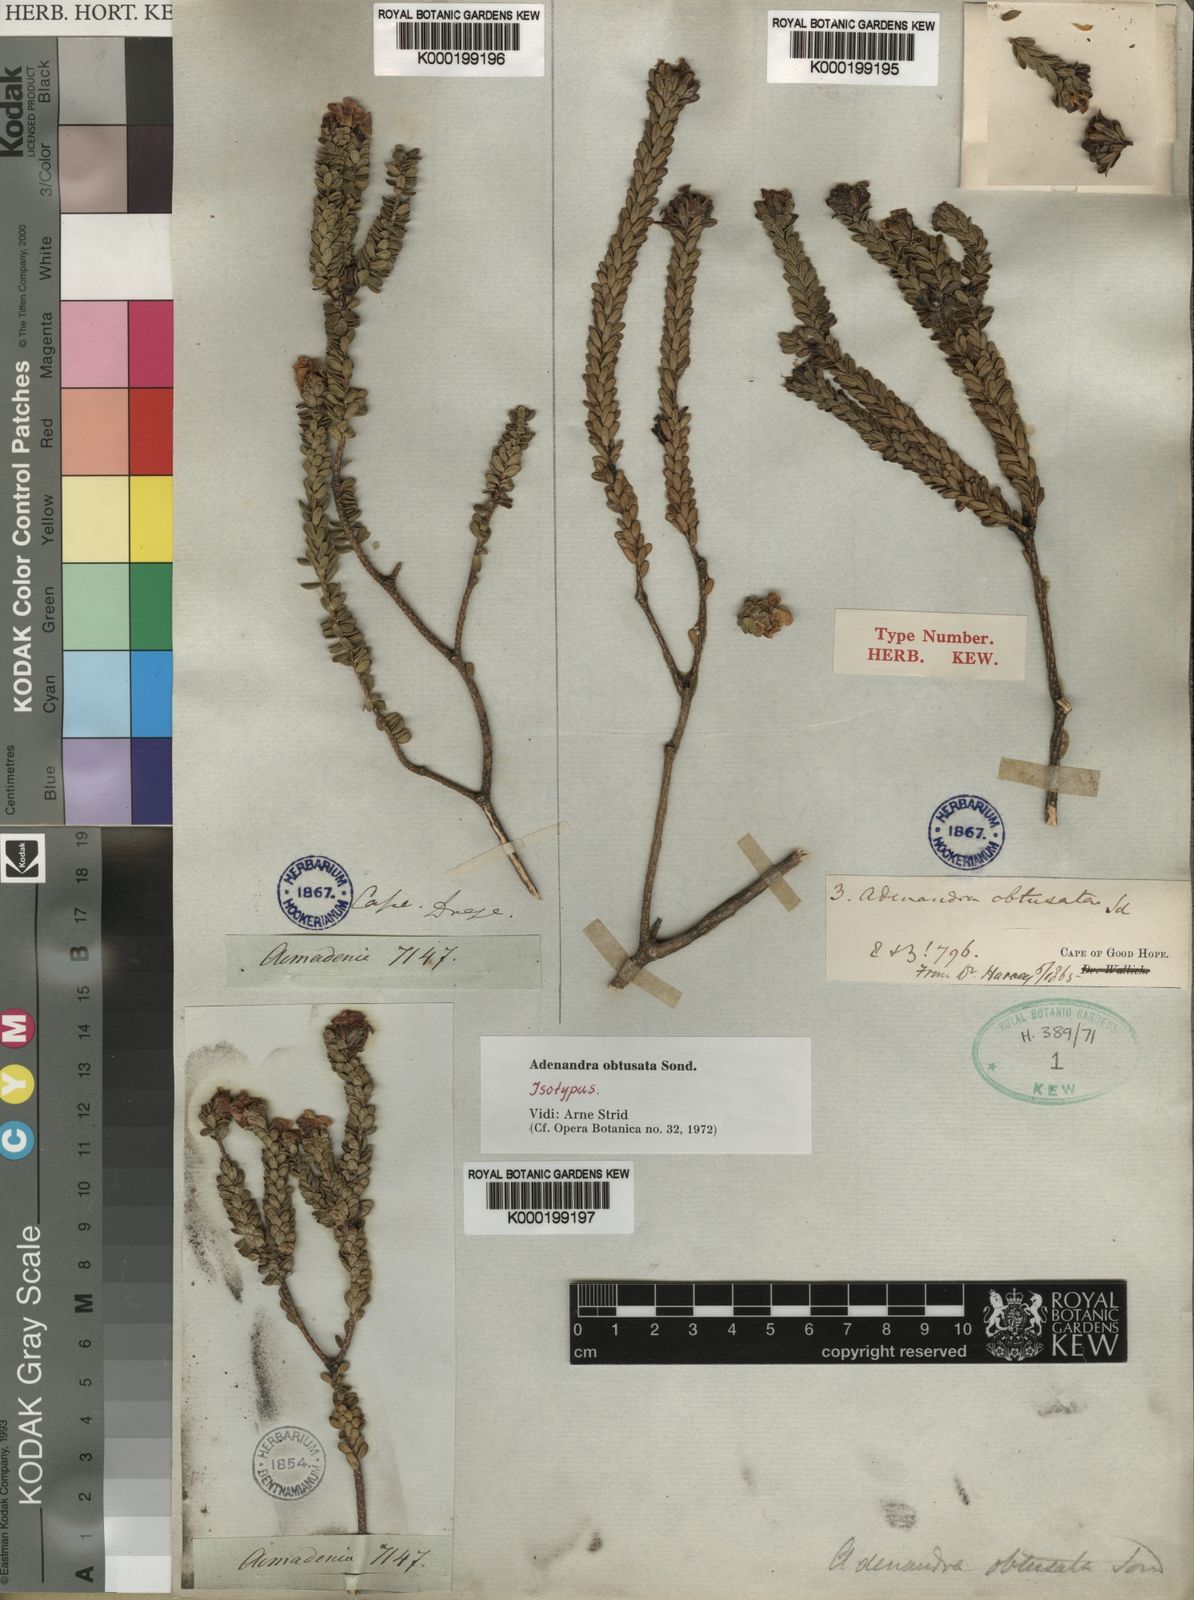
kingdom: Plantae
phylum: Tracheophyta
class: Magnoliopsida
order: Sapindales
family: Rutaceae
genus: Adenandra
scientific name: Adenandra obtusata
